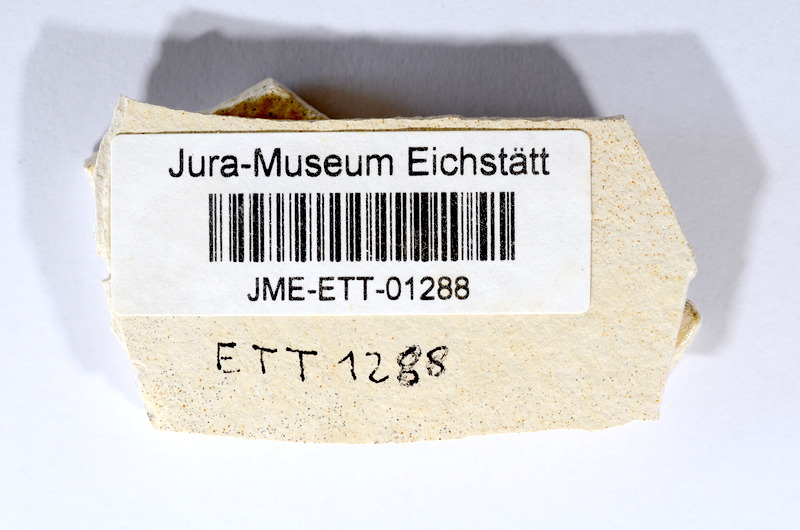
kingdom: Animalia
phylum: Chordata
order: Salmoniformes
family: Orthogonikleithridae
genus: Orthogonikleithrus
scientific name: Orthogonikleithrus hoelli
